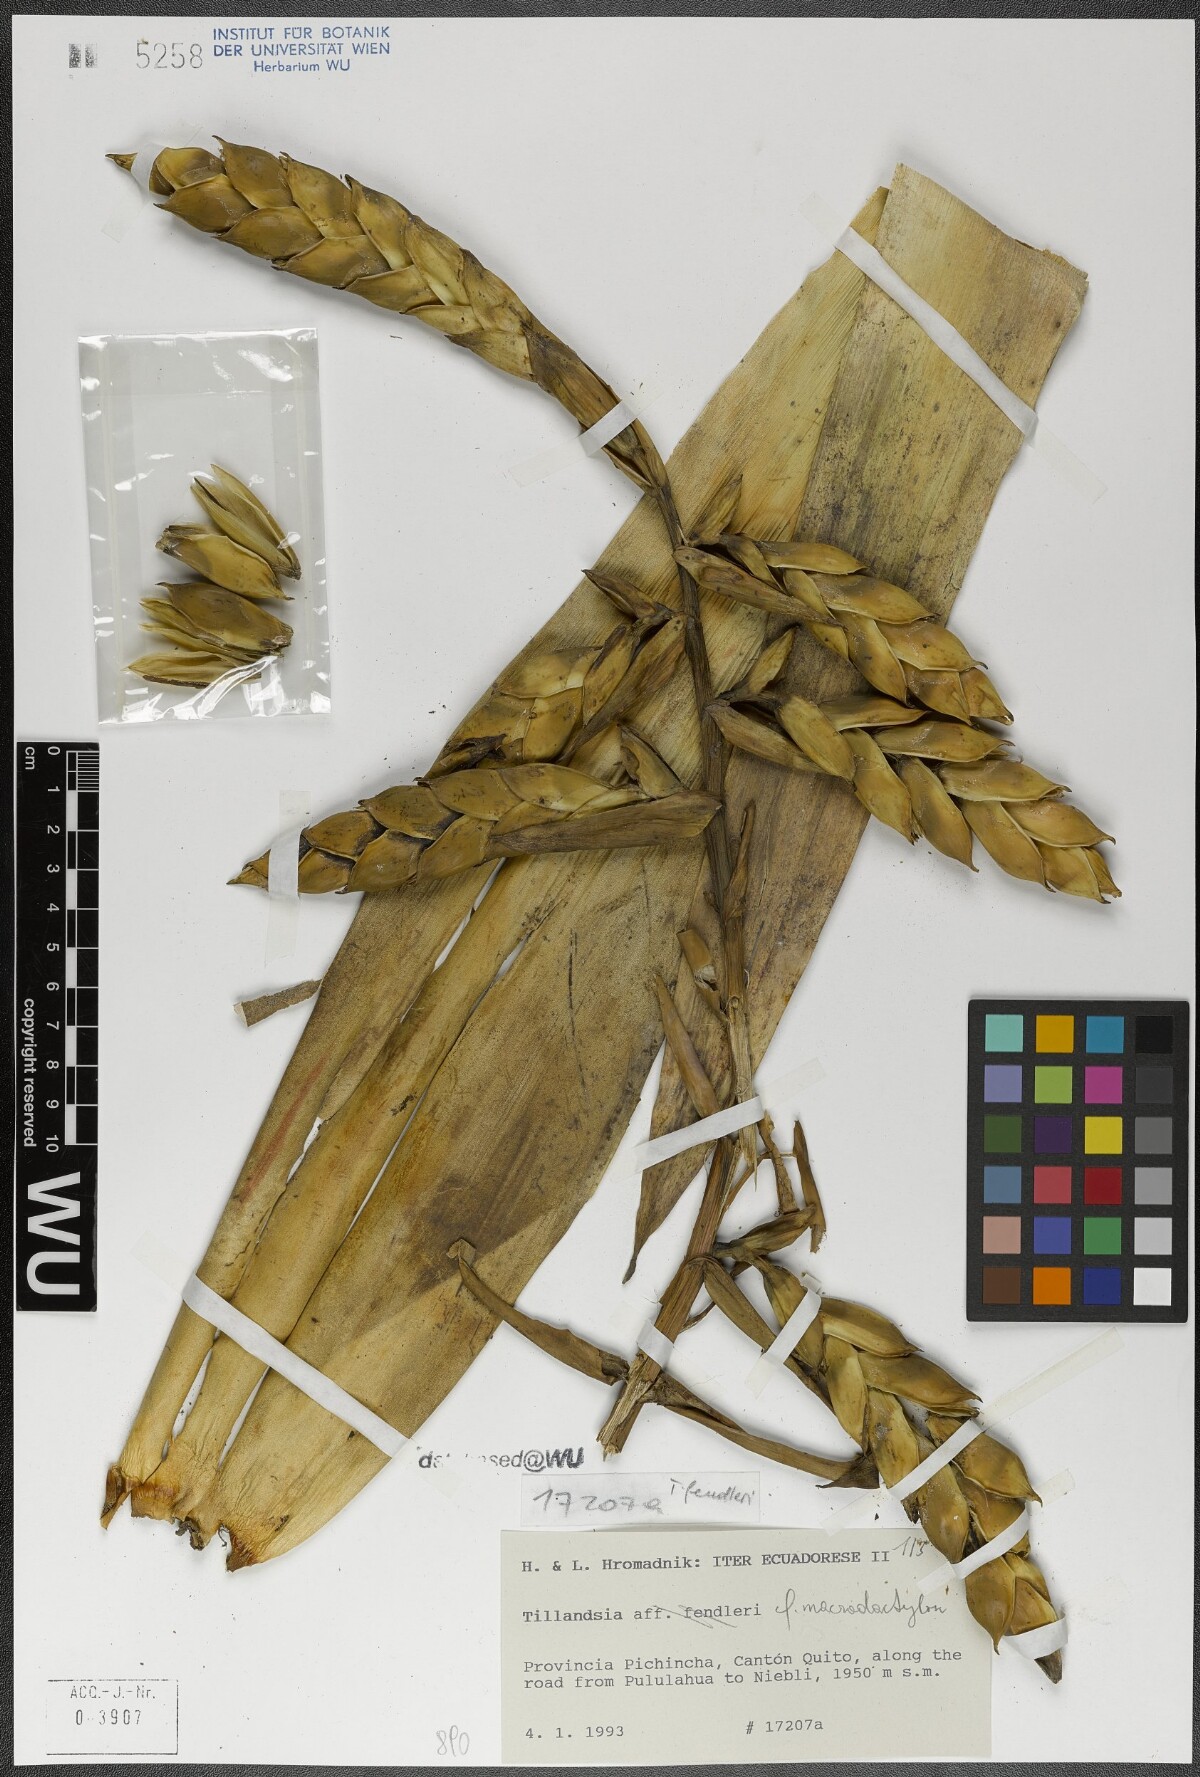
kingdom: Plantae
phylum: Tracheophyta
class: Liliopsida
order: Poales
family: Bromeliaceae
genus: Tillandsia
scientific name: Tillandsia macrodactylon
